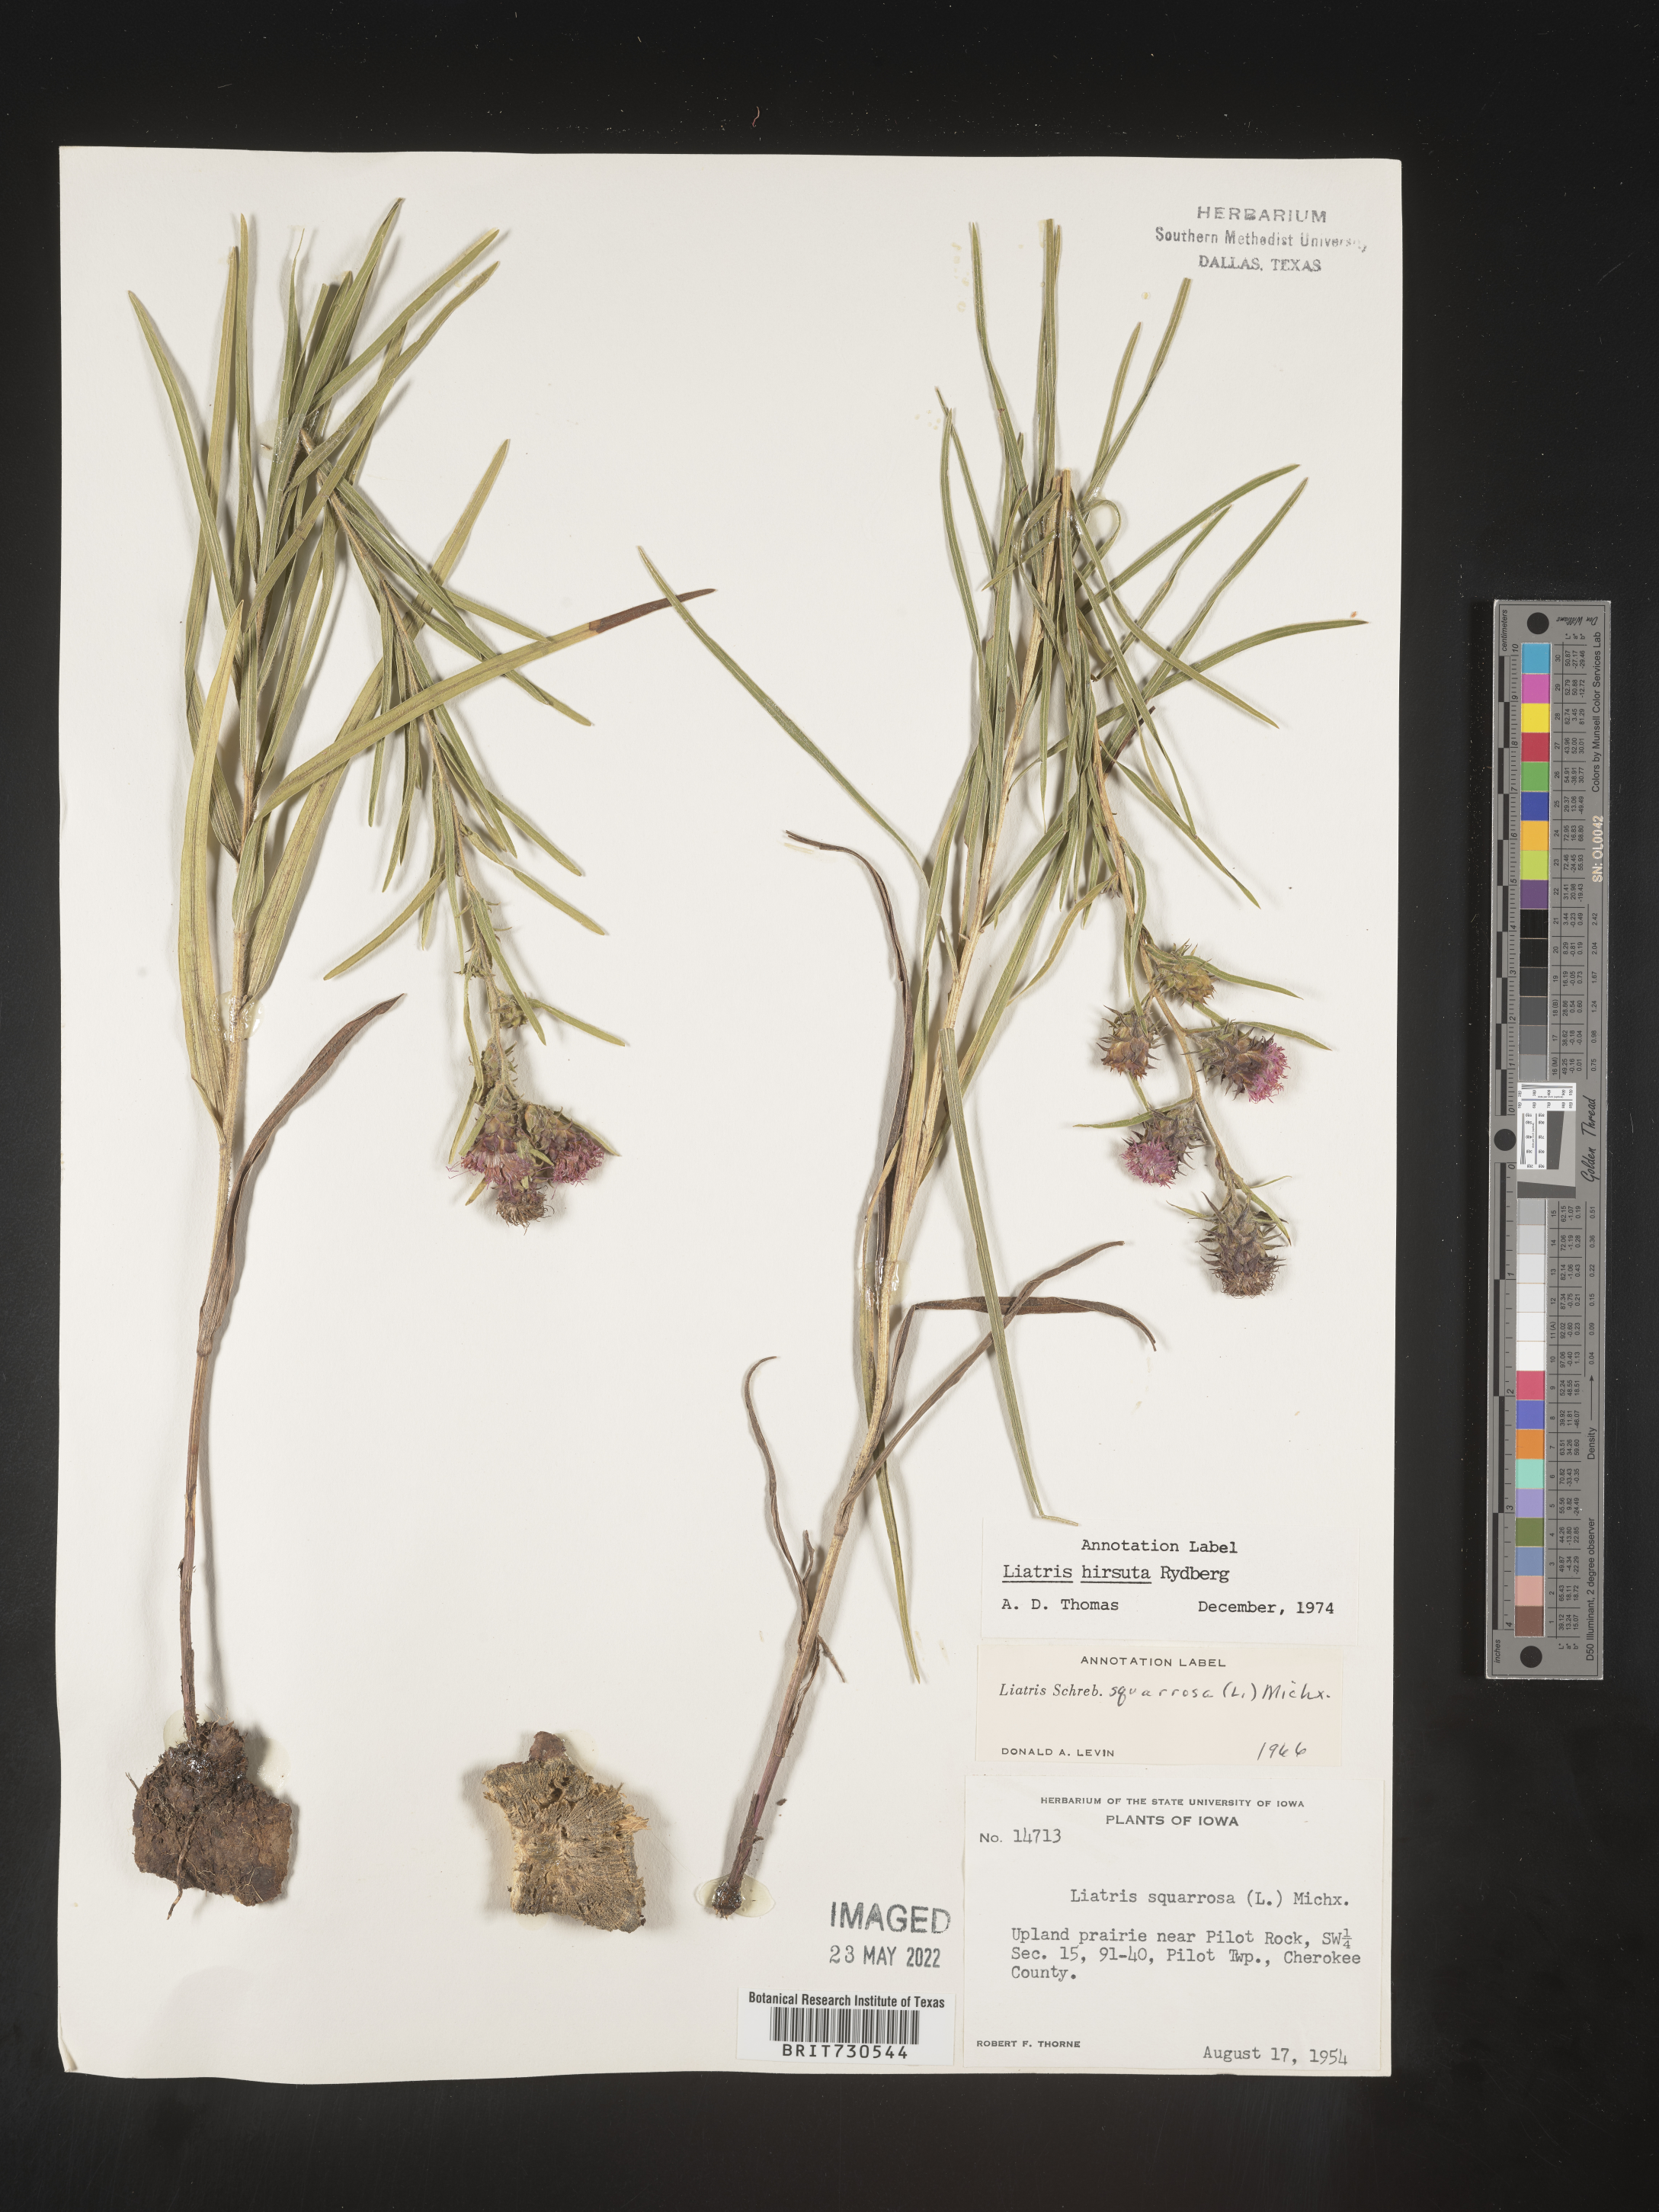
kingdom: Plantae
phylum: Tracheophyta
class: Magnoliopsida
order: Asterales
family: Asteraceae
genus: Liatris
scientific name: Liatris hirsuta
